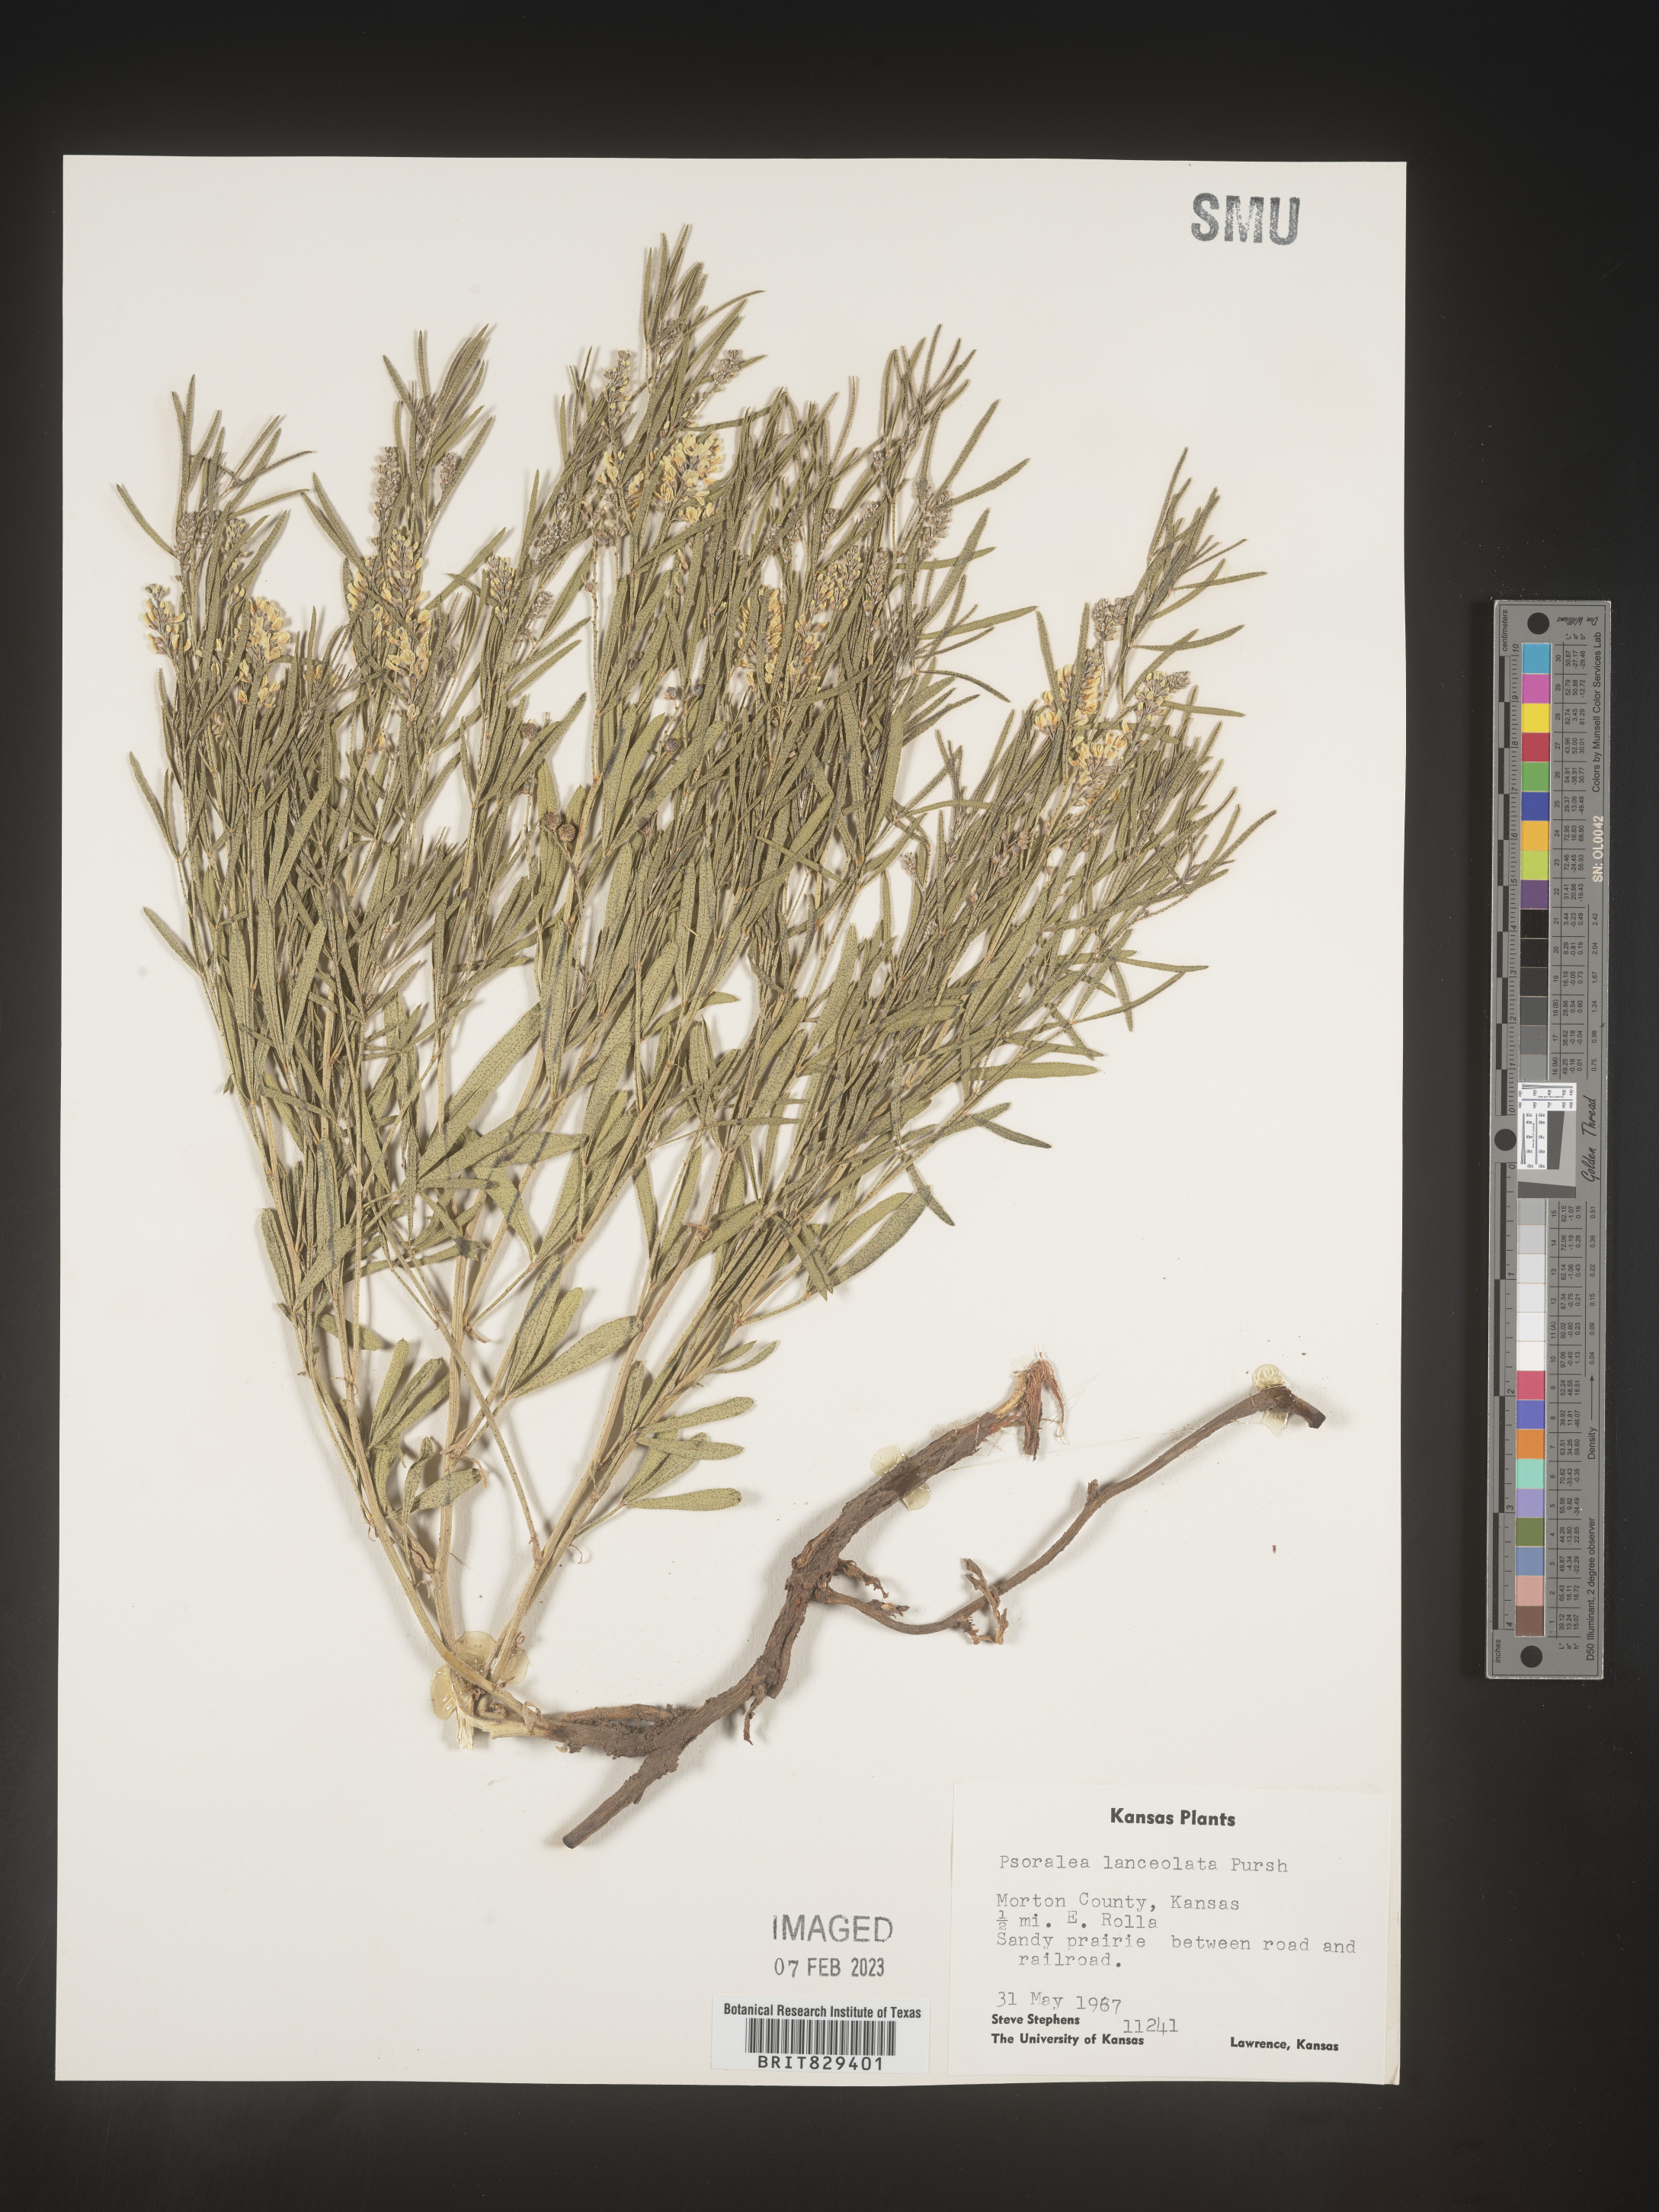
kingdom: Plantae
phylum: Tracheophyta
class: Magnoliopsida
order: Fabales
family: Fabaceae
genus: Psoralea
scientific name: Psoralea
